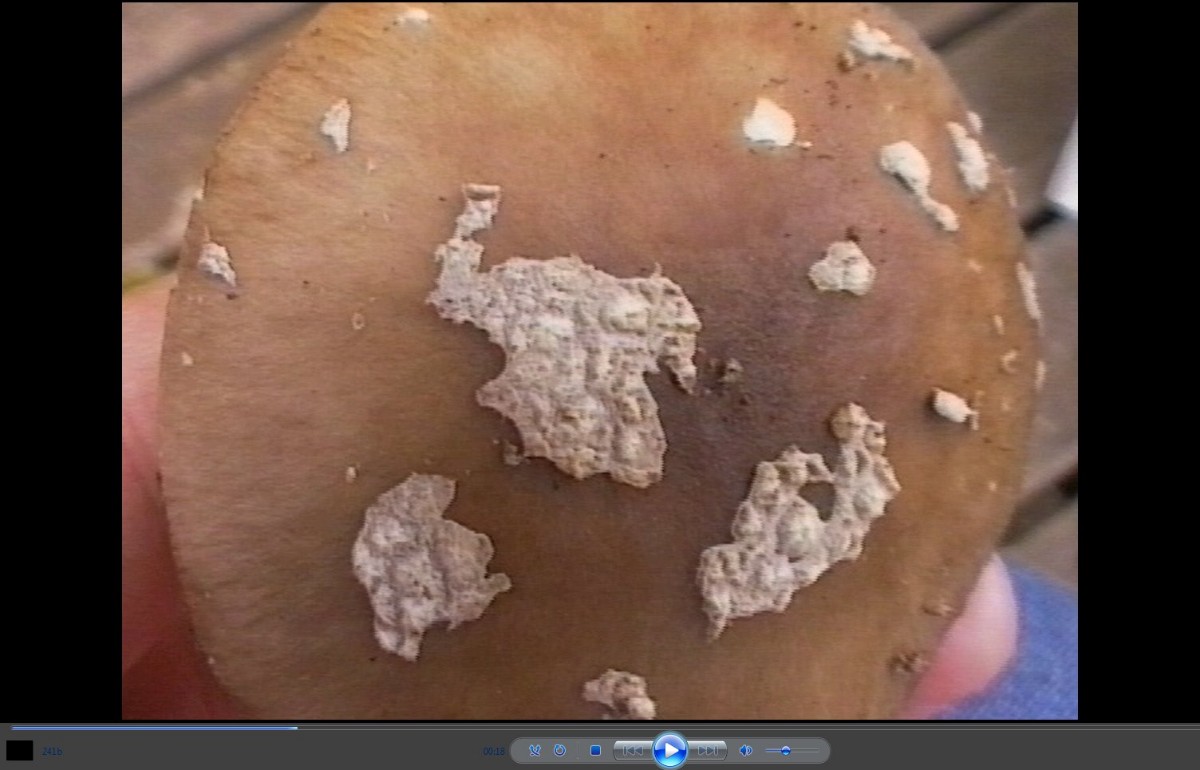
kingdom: Fungi
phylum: Basidiomycota
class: Agaricomycetes
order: Agaricales
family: Amanitaceae
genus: Amanita
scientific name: Amanita
